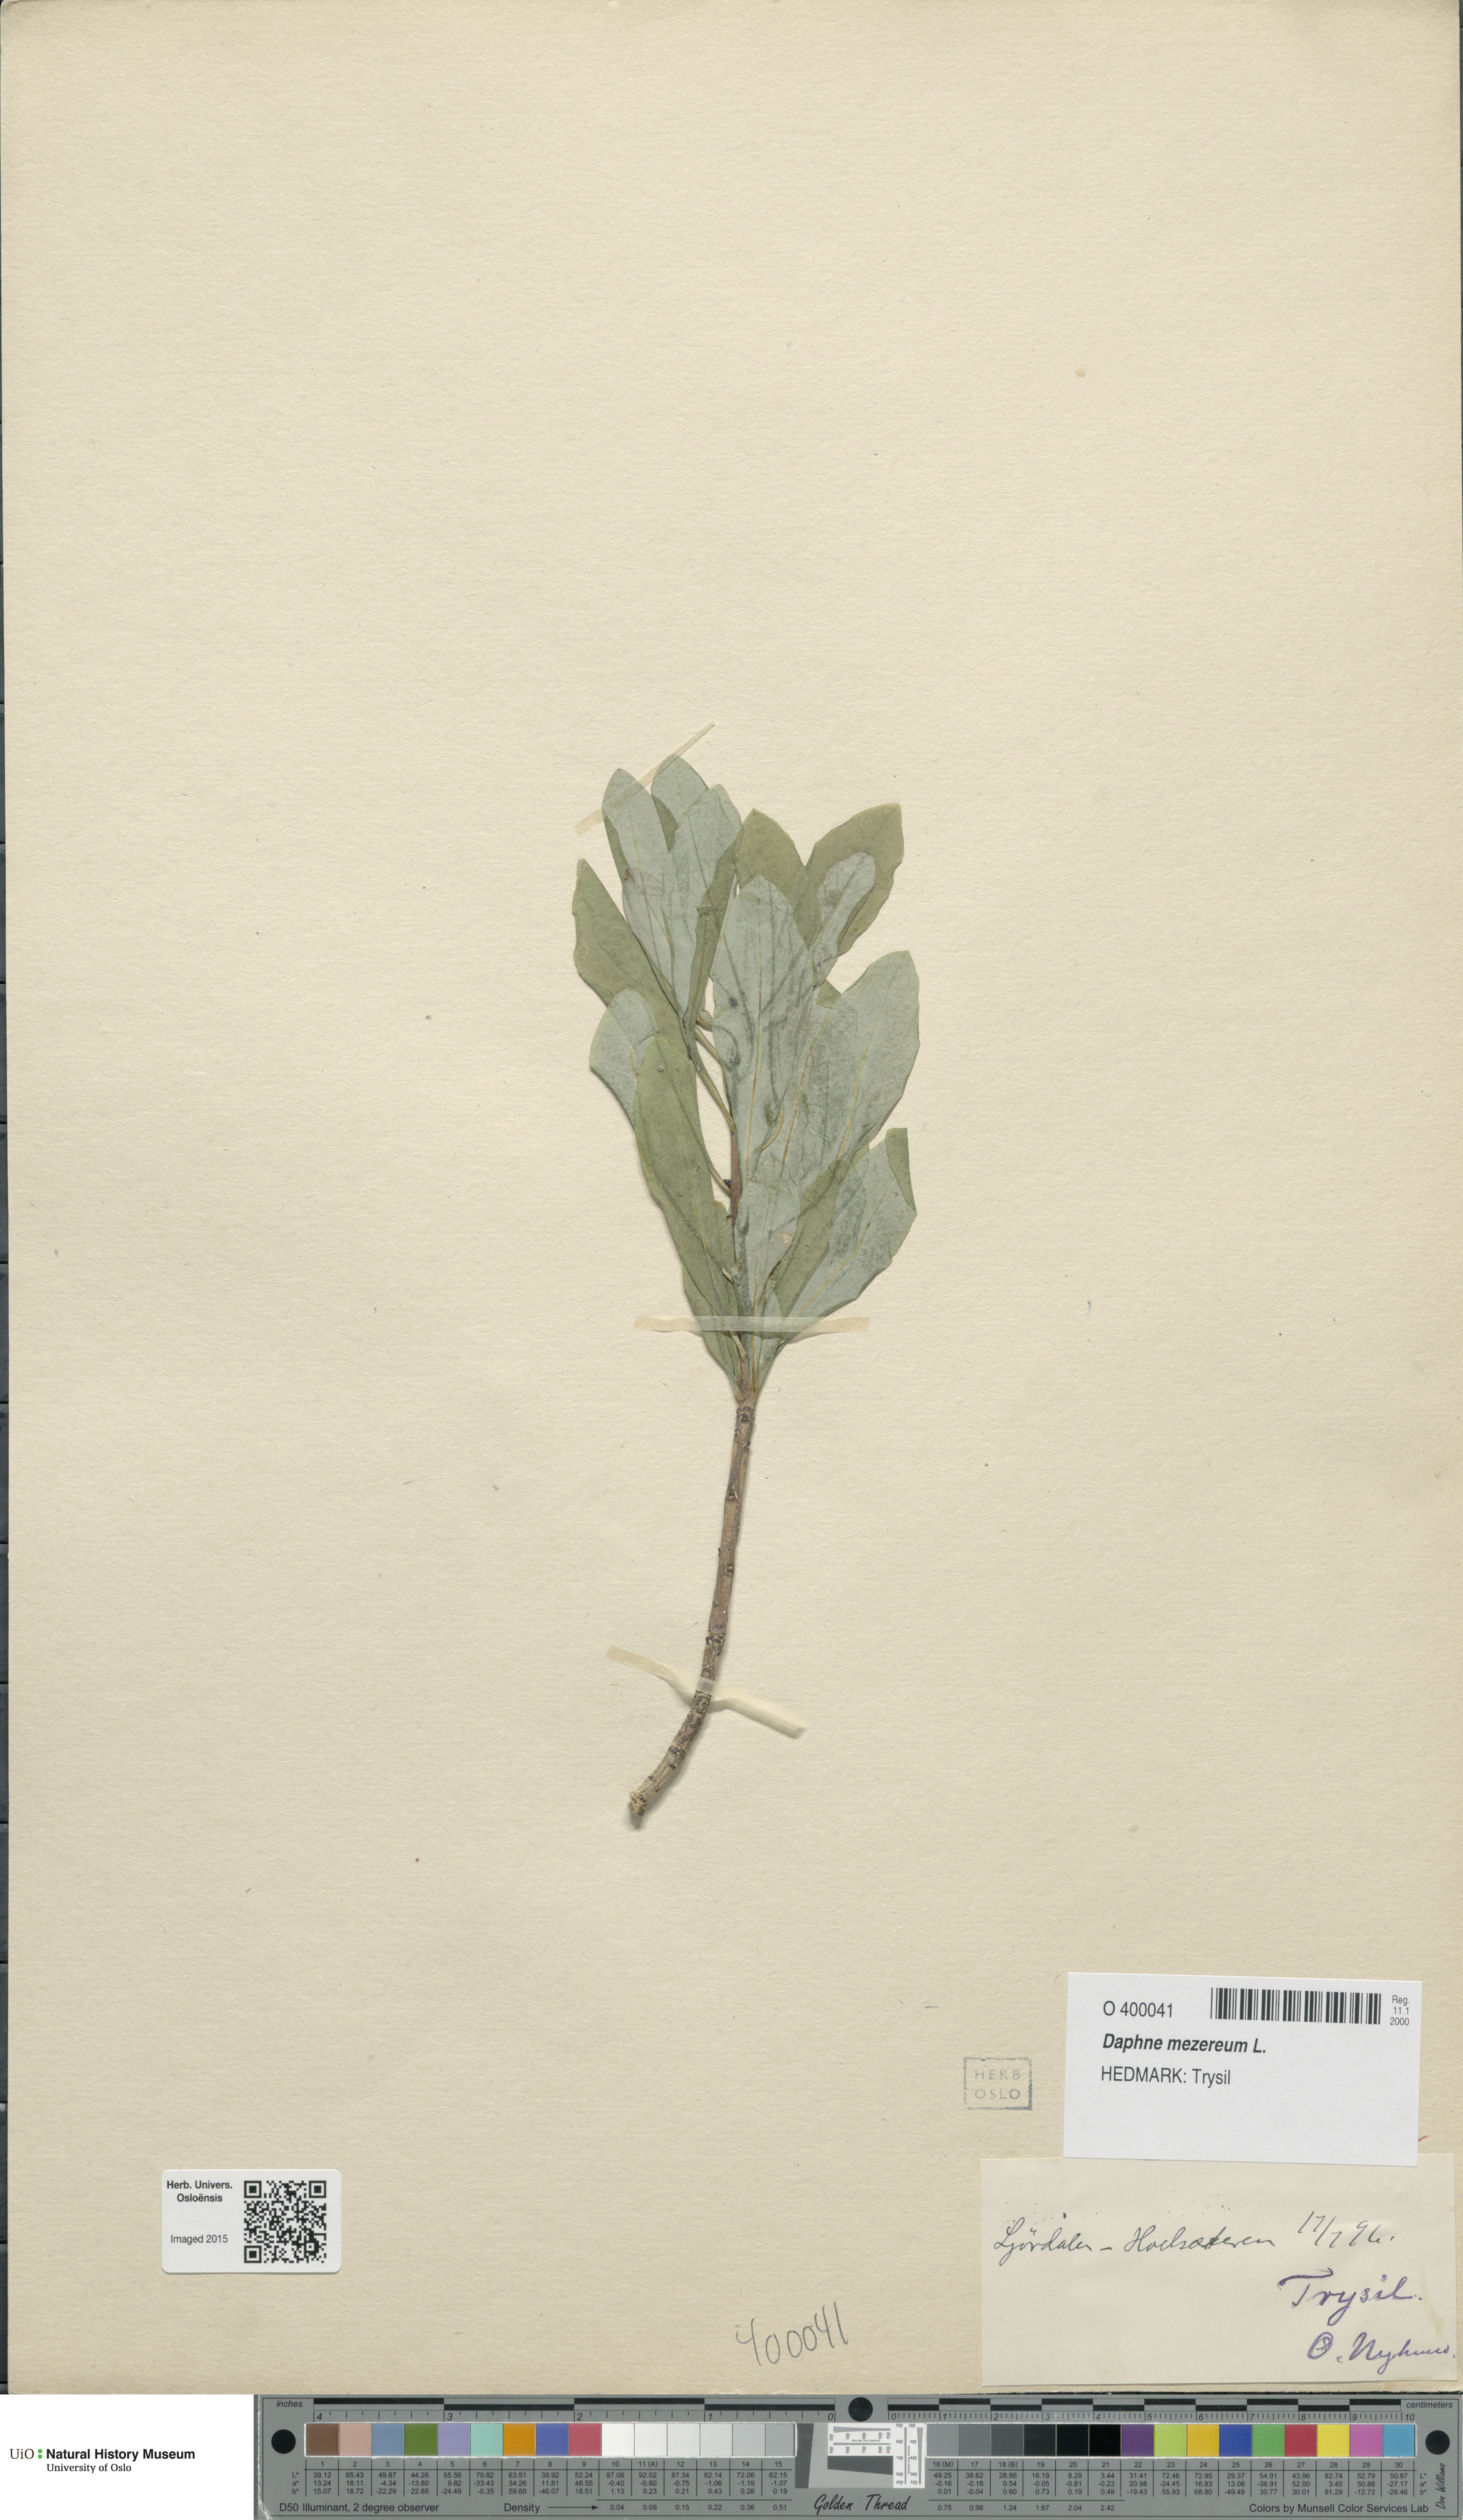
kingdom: Plantae
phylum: Tracheophyta
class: Magnoliopsida
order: Malvales
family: Thymelaeaceae
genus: Daphne
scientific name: Daphne mezereum
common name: Mezereon
